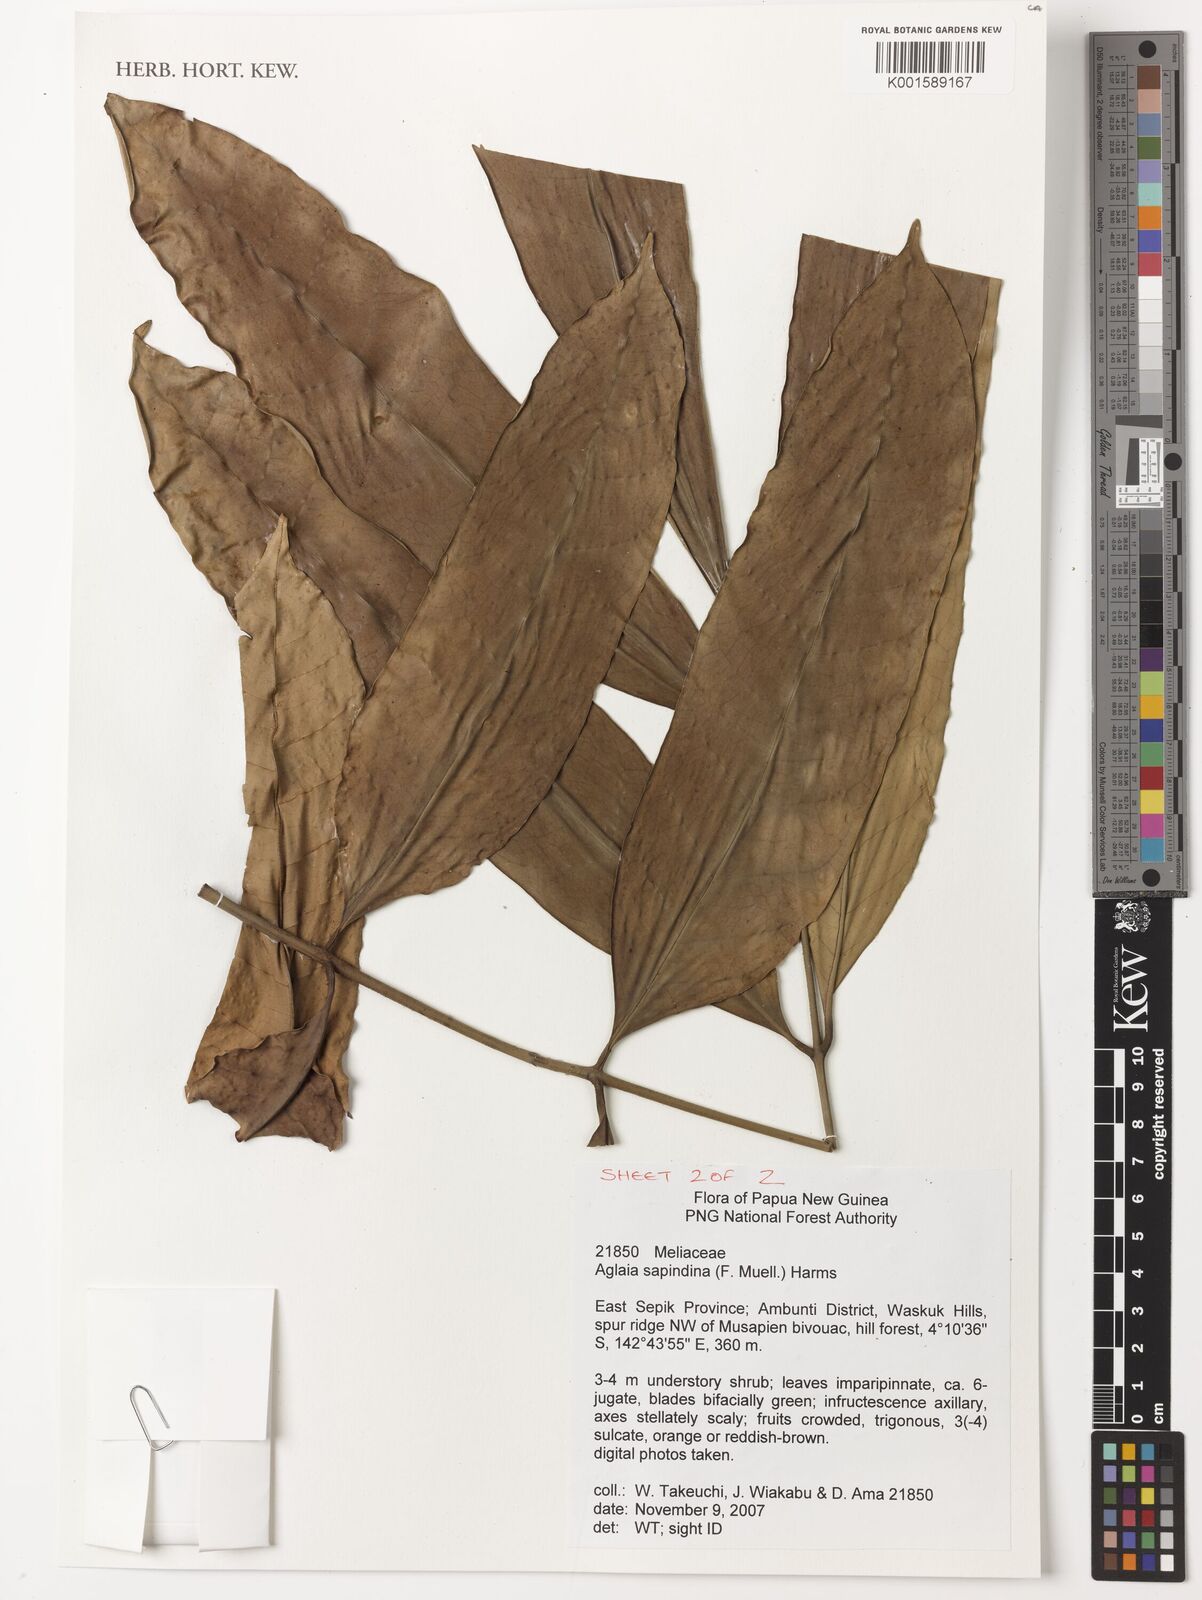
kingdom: Plantae
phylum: Tracheophyta
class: Magnoliopsida
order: Sapindales
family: Meliaceae
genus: Aglaia
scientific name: Aglaia sapindina
